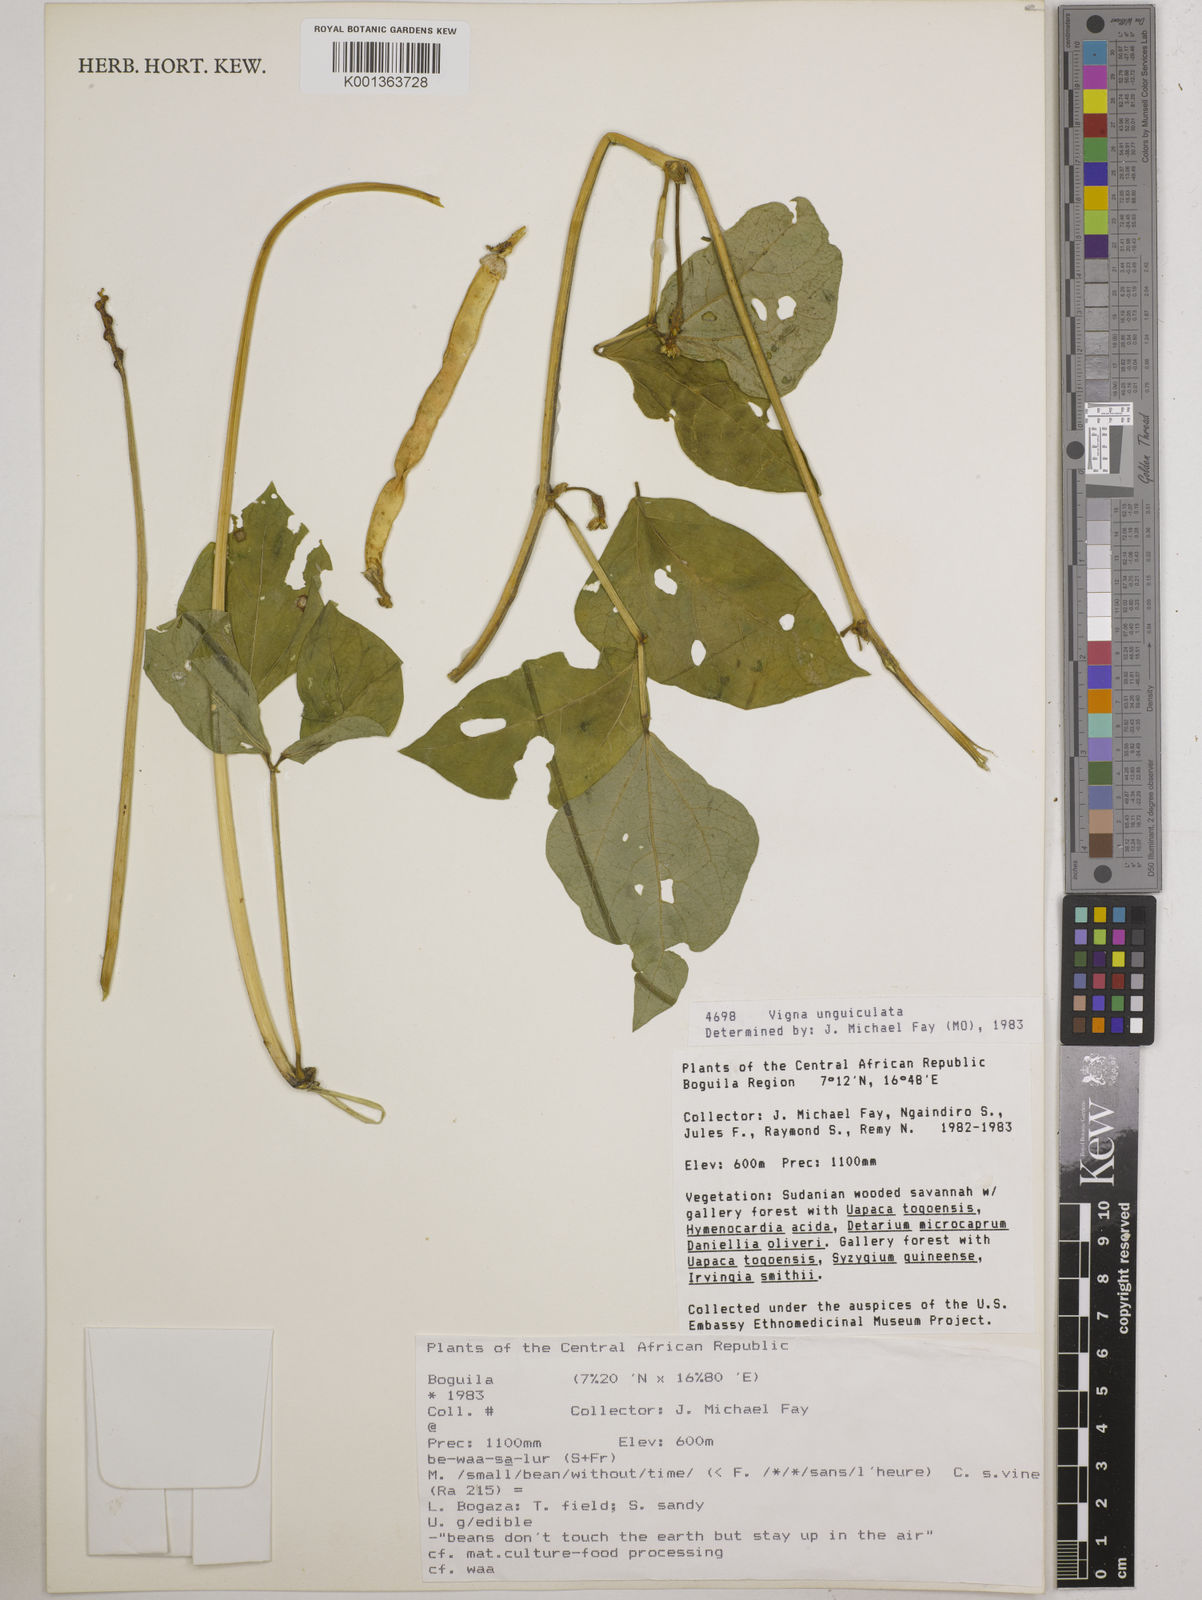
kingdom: Plantae
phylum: Tracheophyta
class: Magnoliopsida
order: Fabales
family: Fabaceae
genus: Vigna
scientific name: Vigna unguiculata
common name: Cowpea
